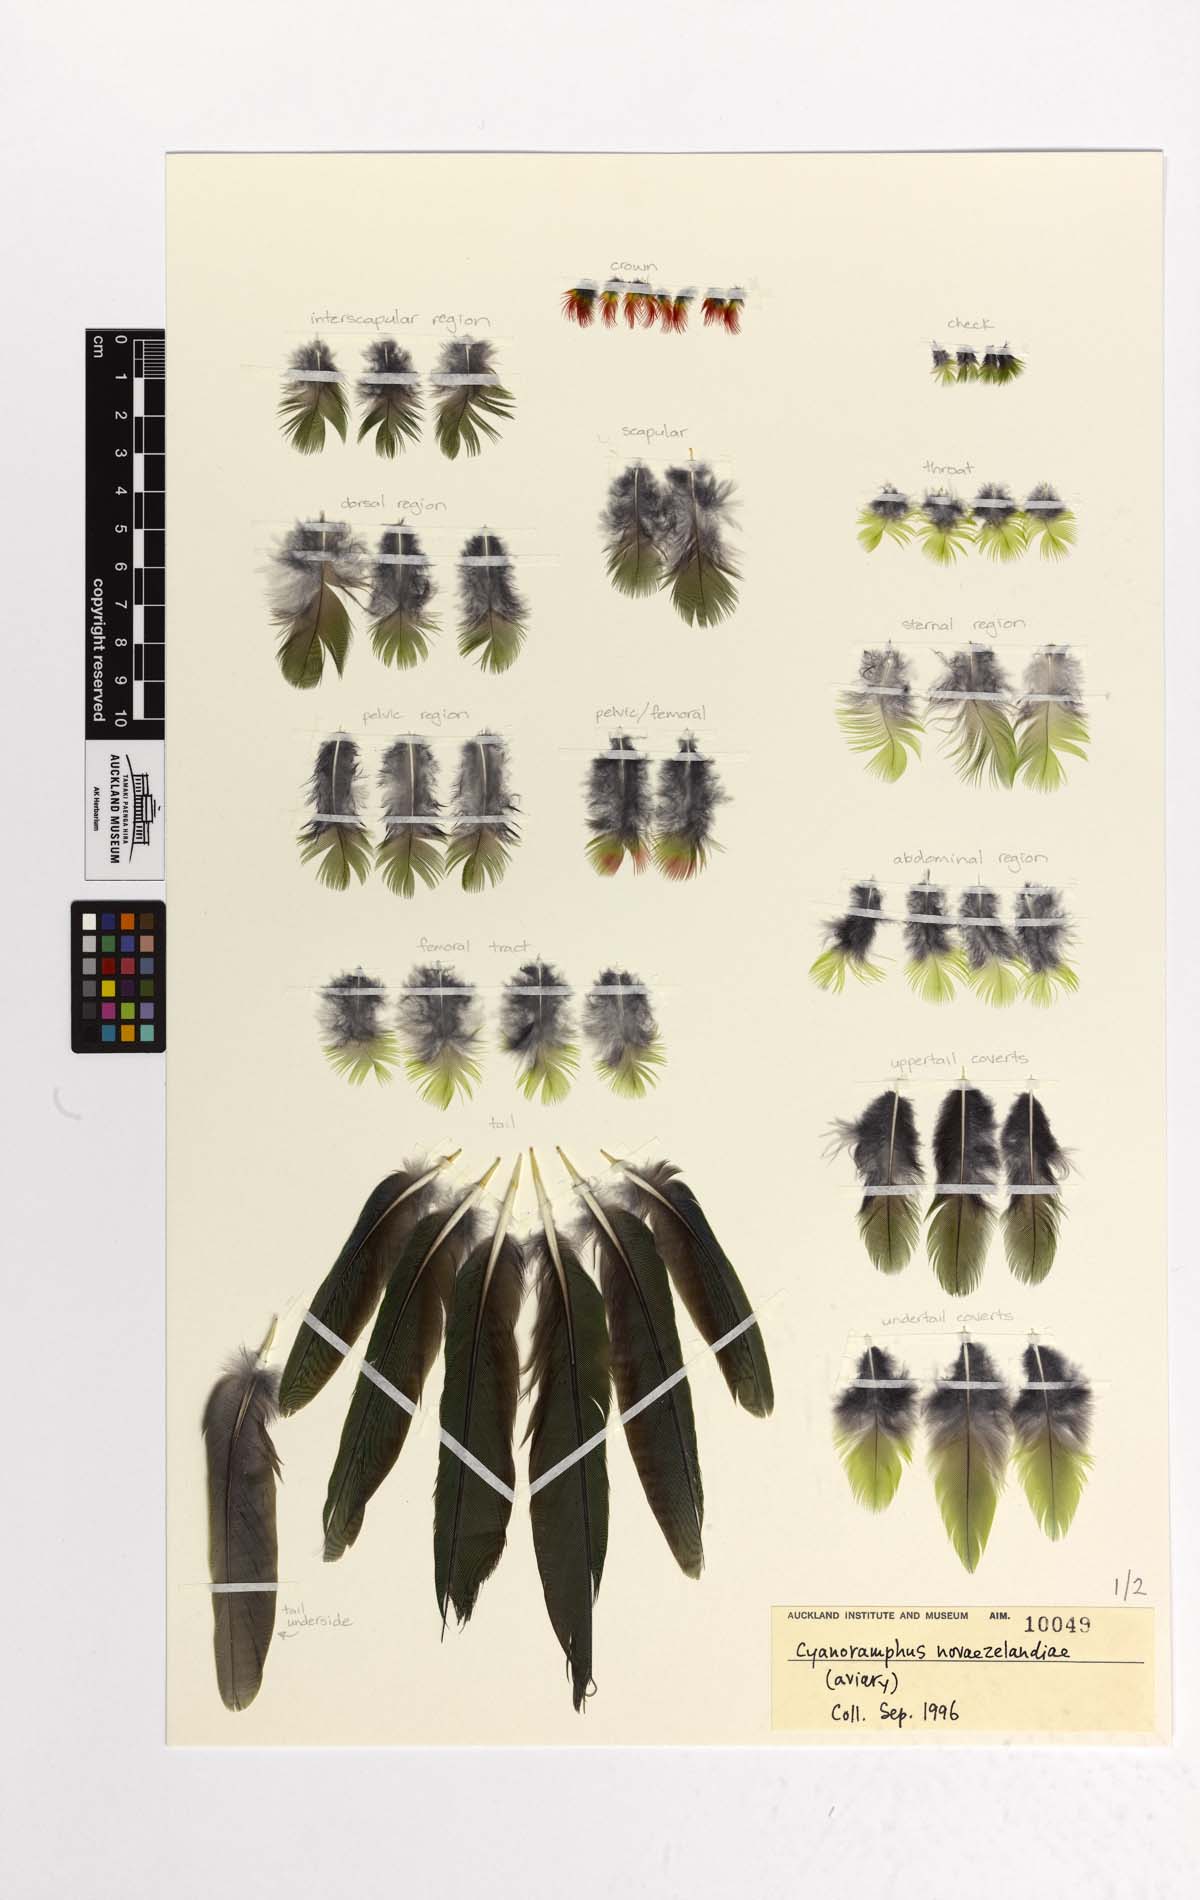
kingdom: Animalia
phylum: Chordata
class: Aves
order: Psittaciformes
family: Psittacidae
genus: Cyanoramphus
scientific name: Cyanoramphus novaezelandiae
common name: Red-fronted parakeet
